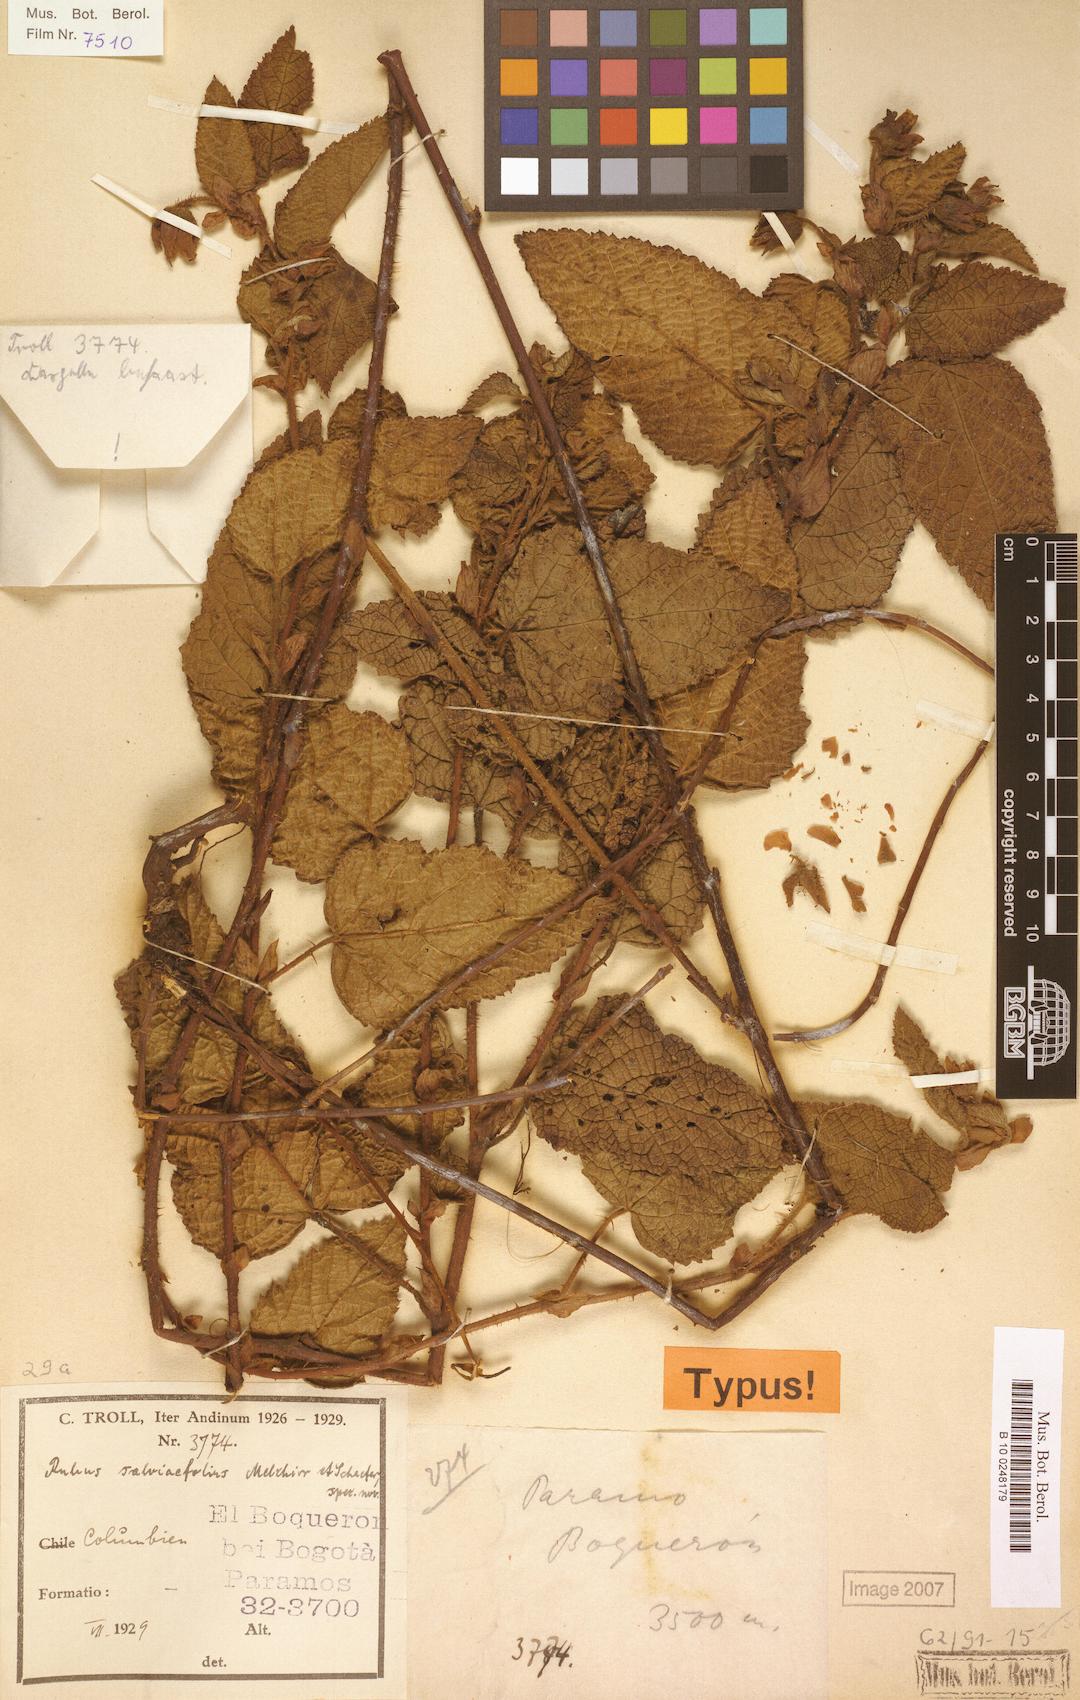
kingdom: Plantae
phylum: Tracheophyta
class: Magnoliopsida
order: Rosales
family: Rosaceae
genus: Rubus
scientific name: Rubus
